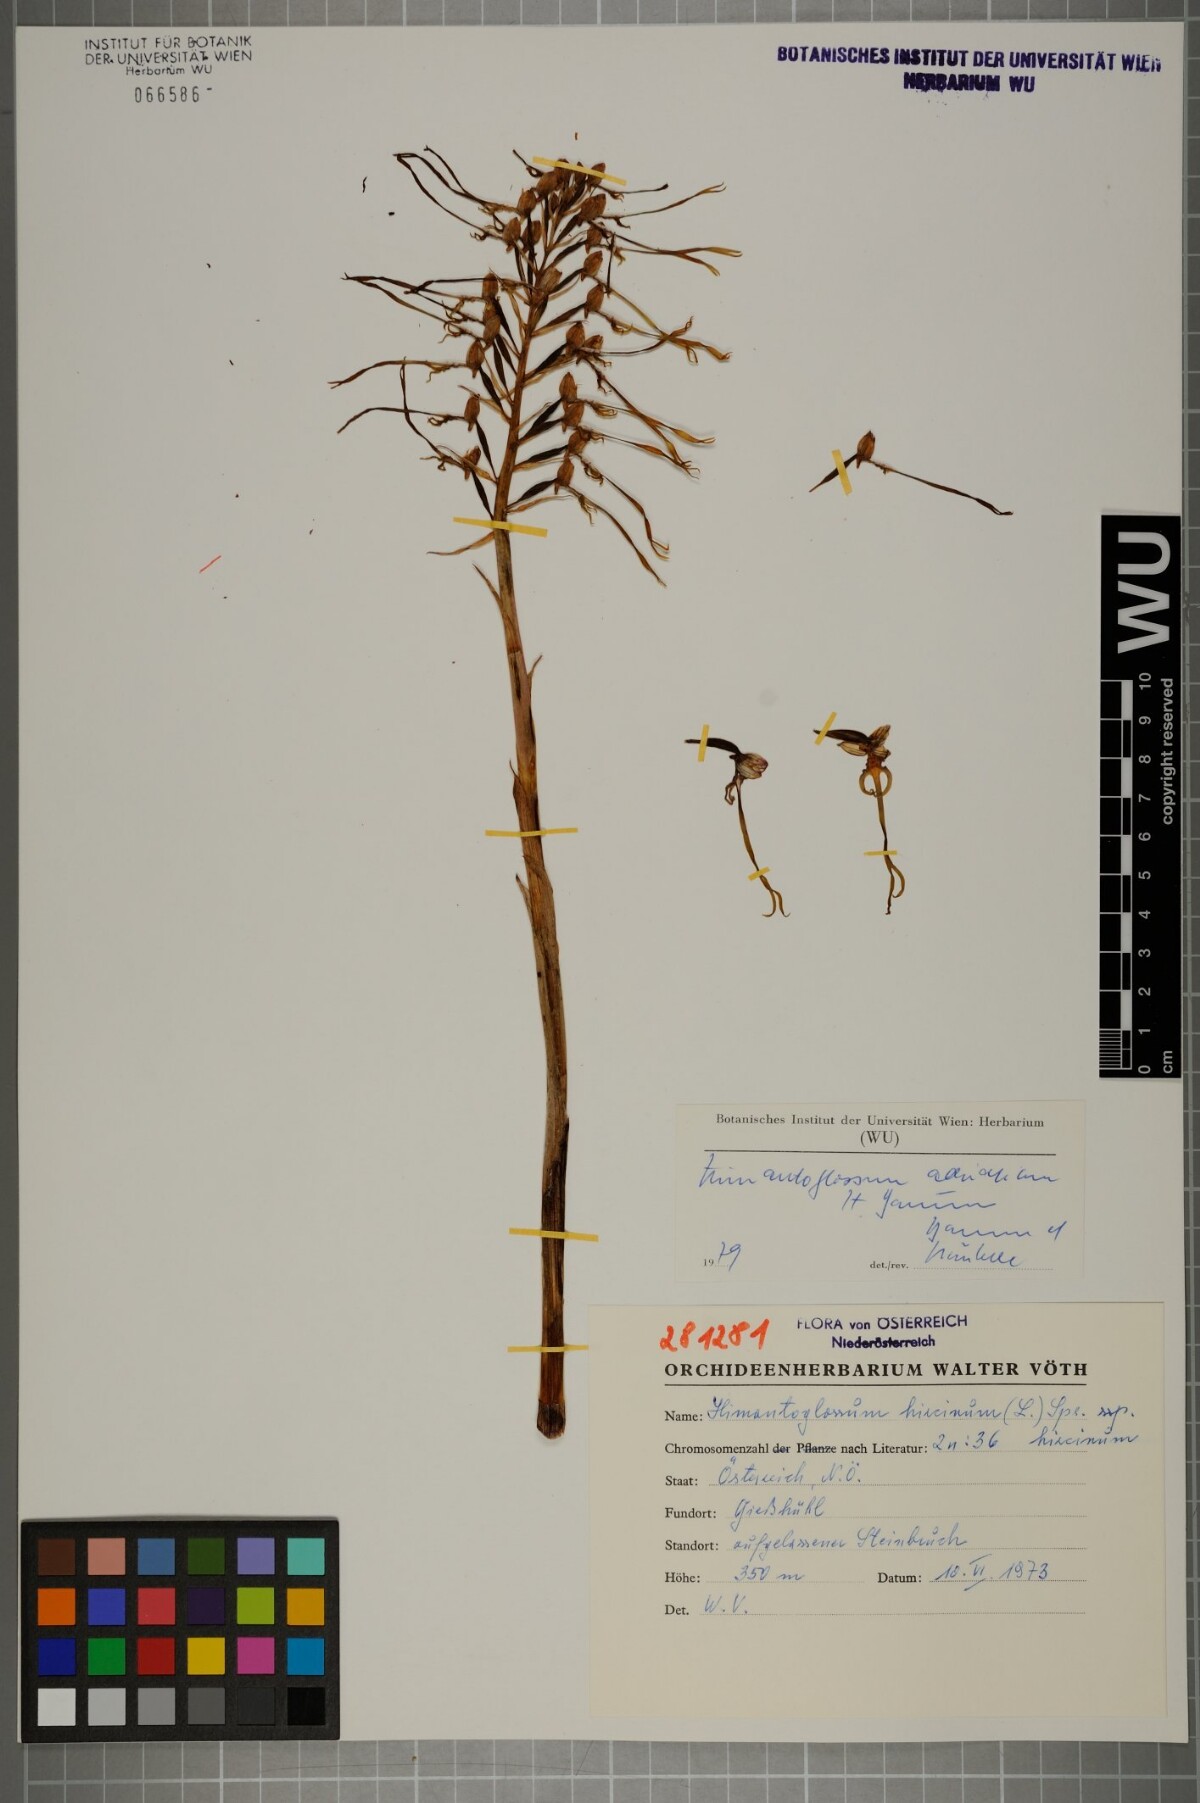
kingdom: Plantae
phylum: Tracheophyta
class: Liliopsida
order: Asparagales
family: Orchidaceae
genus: Himantoglossum
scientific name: Himantoglossum adriaticum
